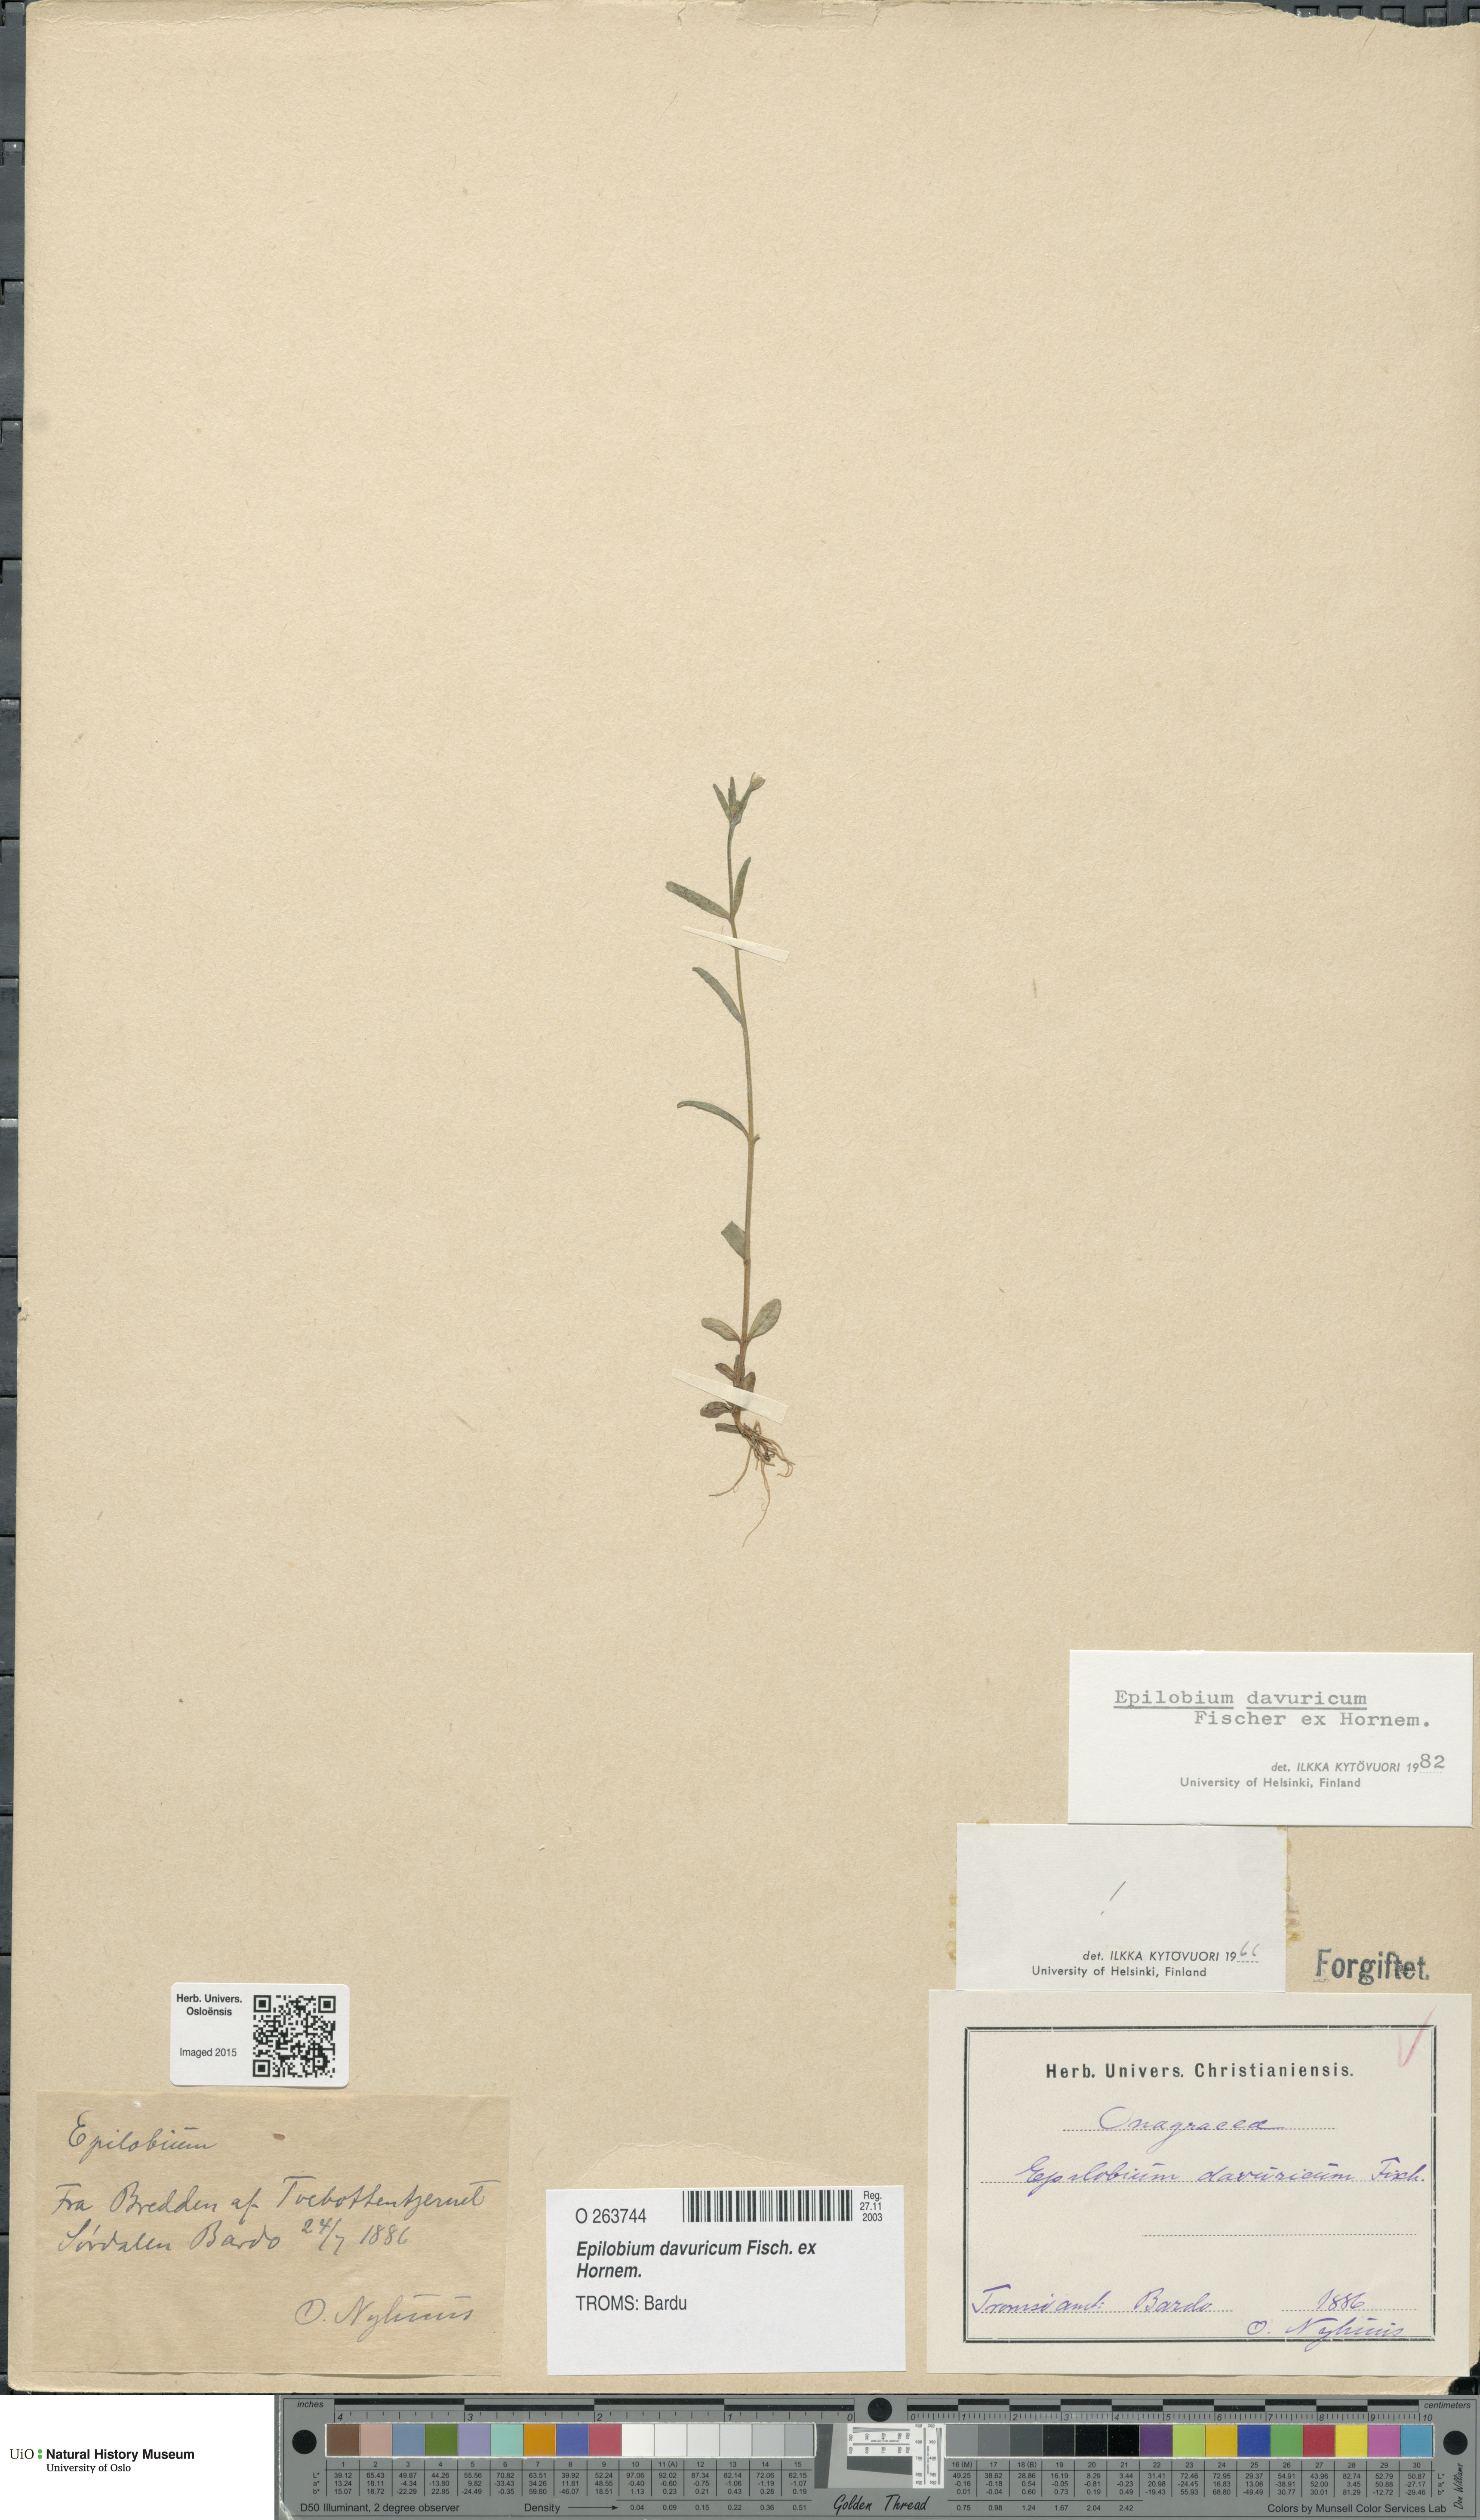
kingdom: Plantae
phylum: Tracheophyta
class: Magnoliopsida
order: Myrtales
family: Onagraceae
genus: Epilobium
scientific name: Epilobium davuricum
